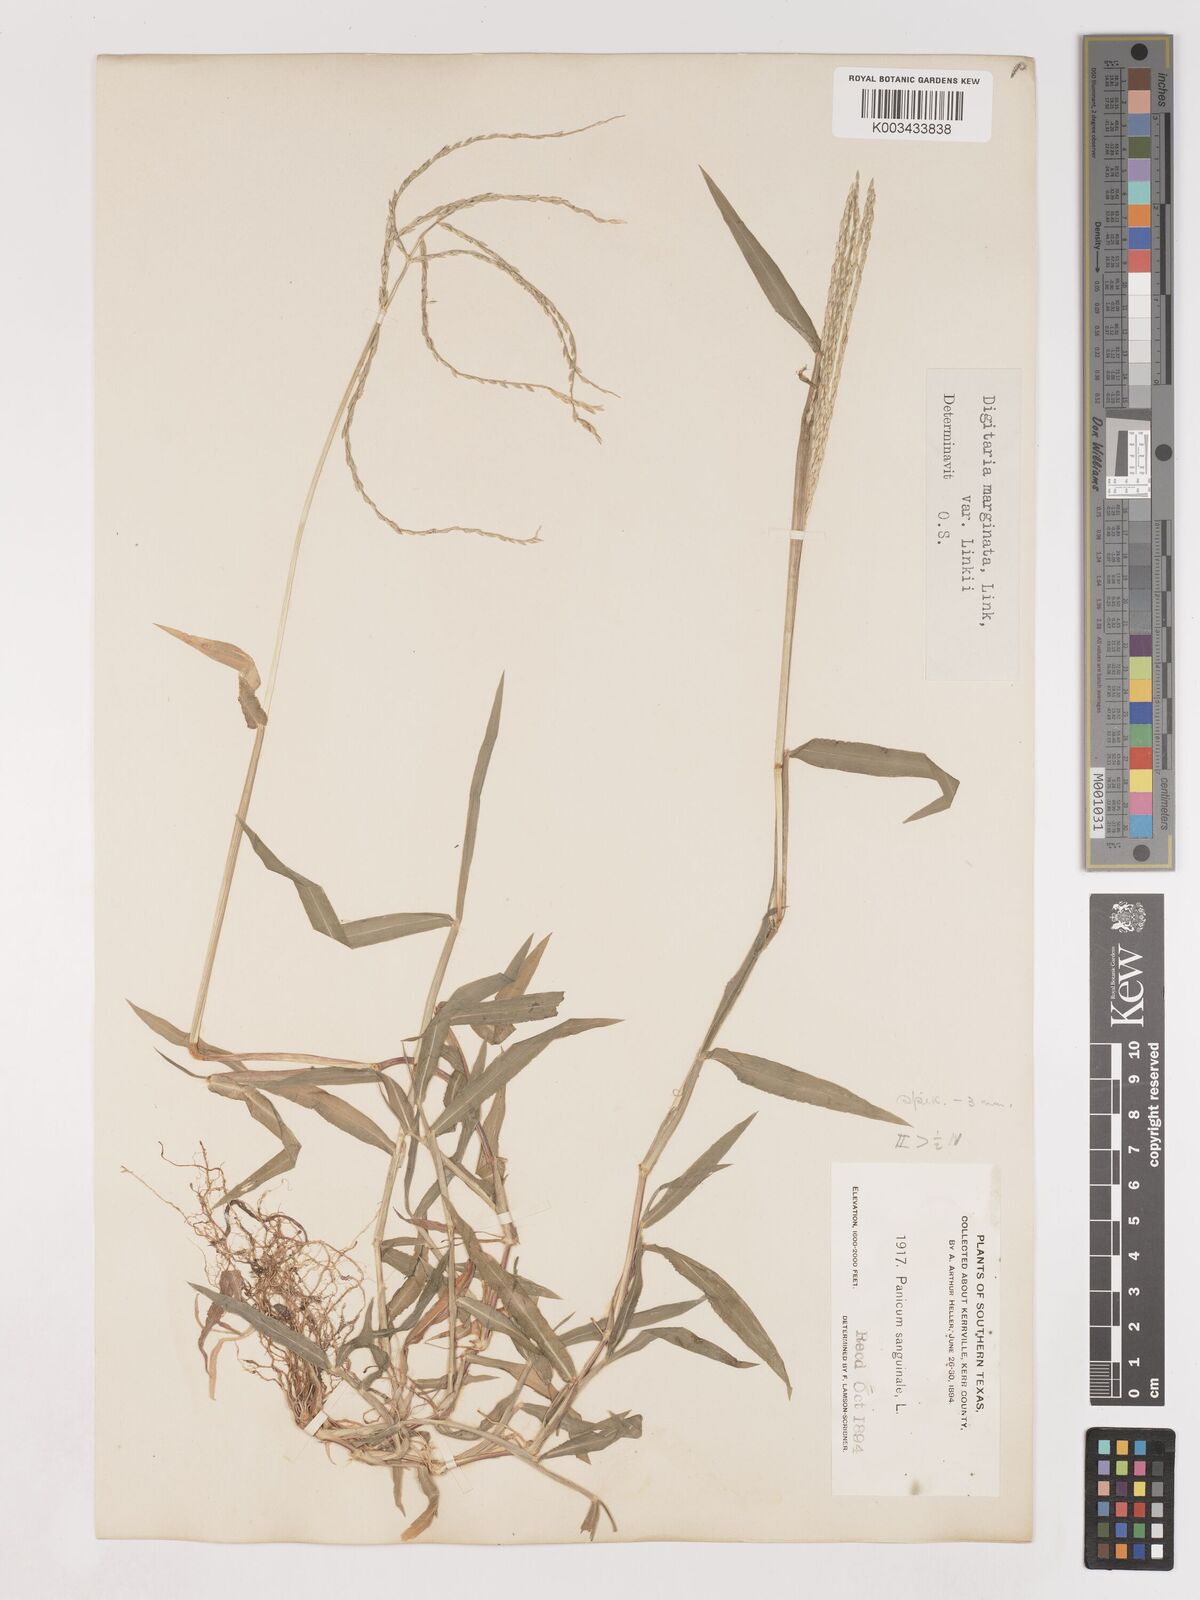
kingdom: Plantae
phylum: Tracheophyta
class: Liliopsida
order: Poales
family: Poaceae
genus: Digitaria
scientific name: Digitaria ciliaris
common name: Tropical finger-grass
